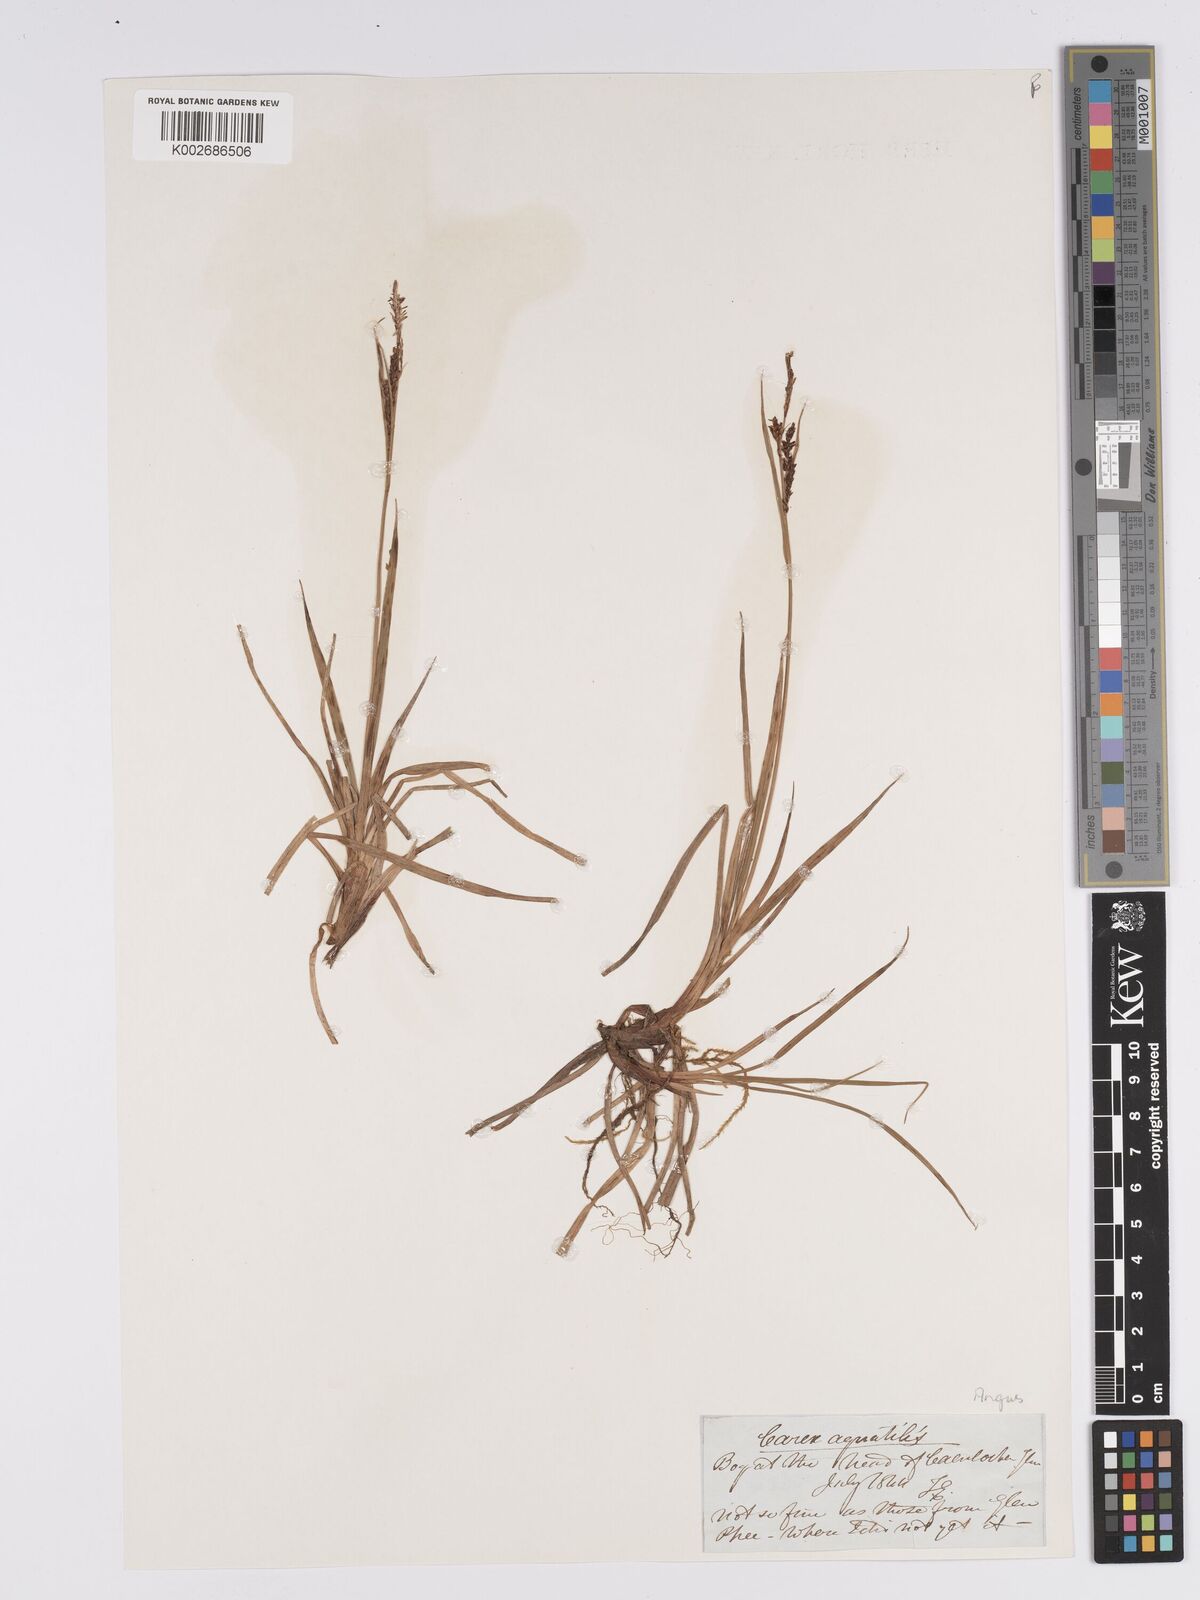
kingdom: Plantae
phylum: Tracheophyta
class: Liliopsida
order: Poales
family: Cyperaceae
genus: Carex
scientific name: Carex aquatilis
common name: Water sedge
